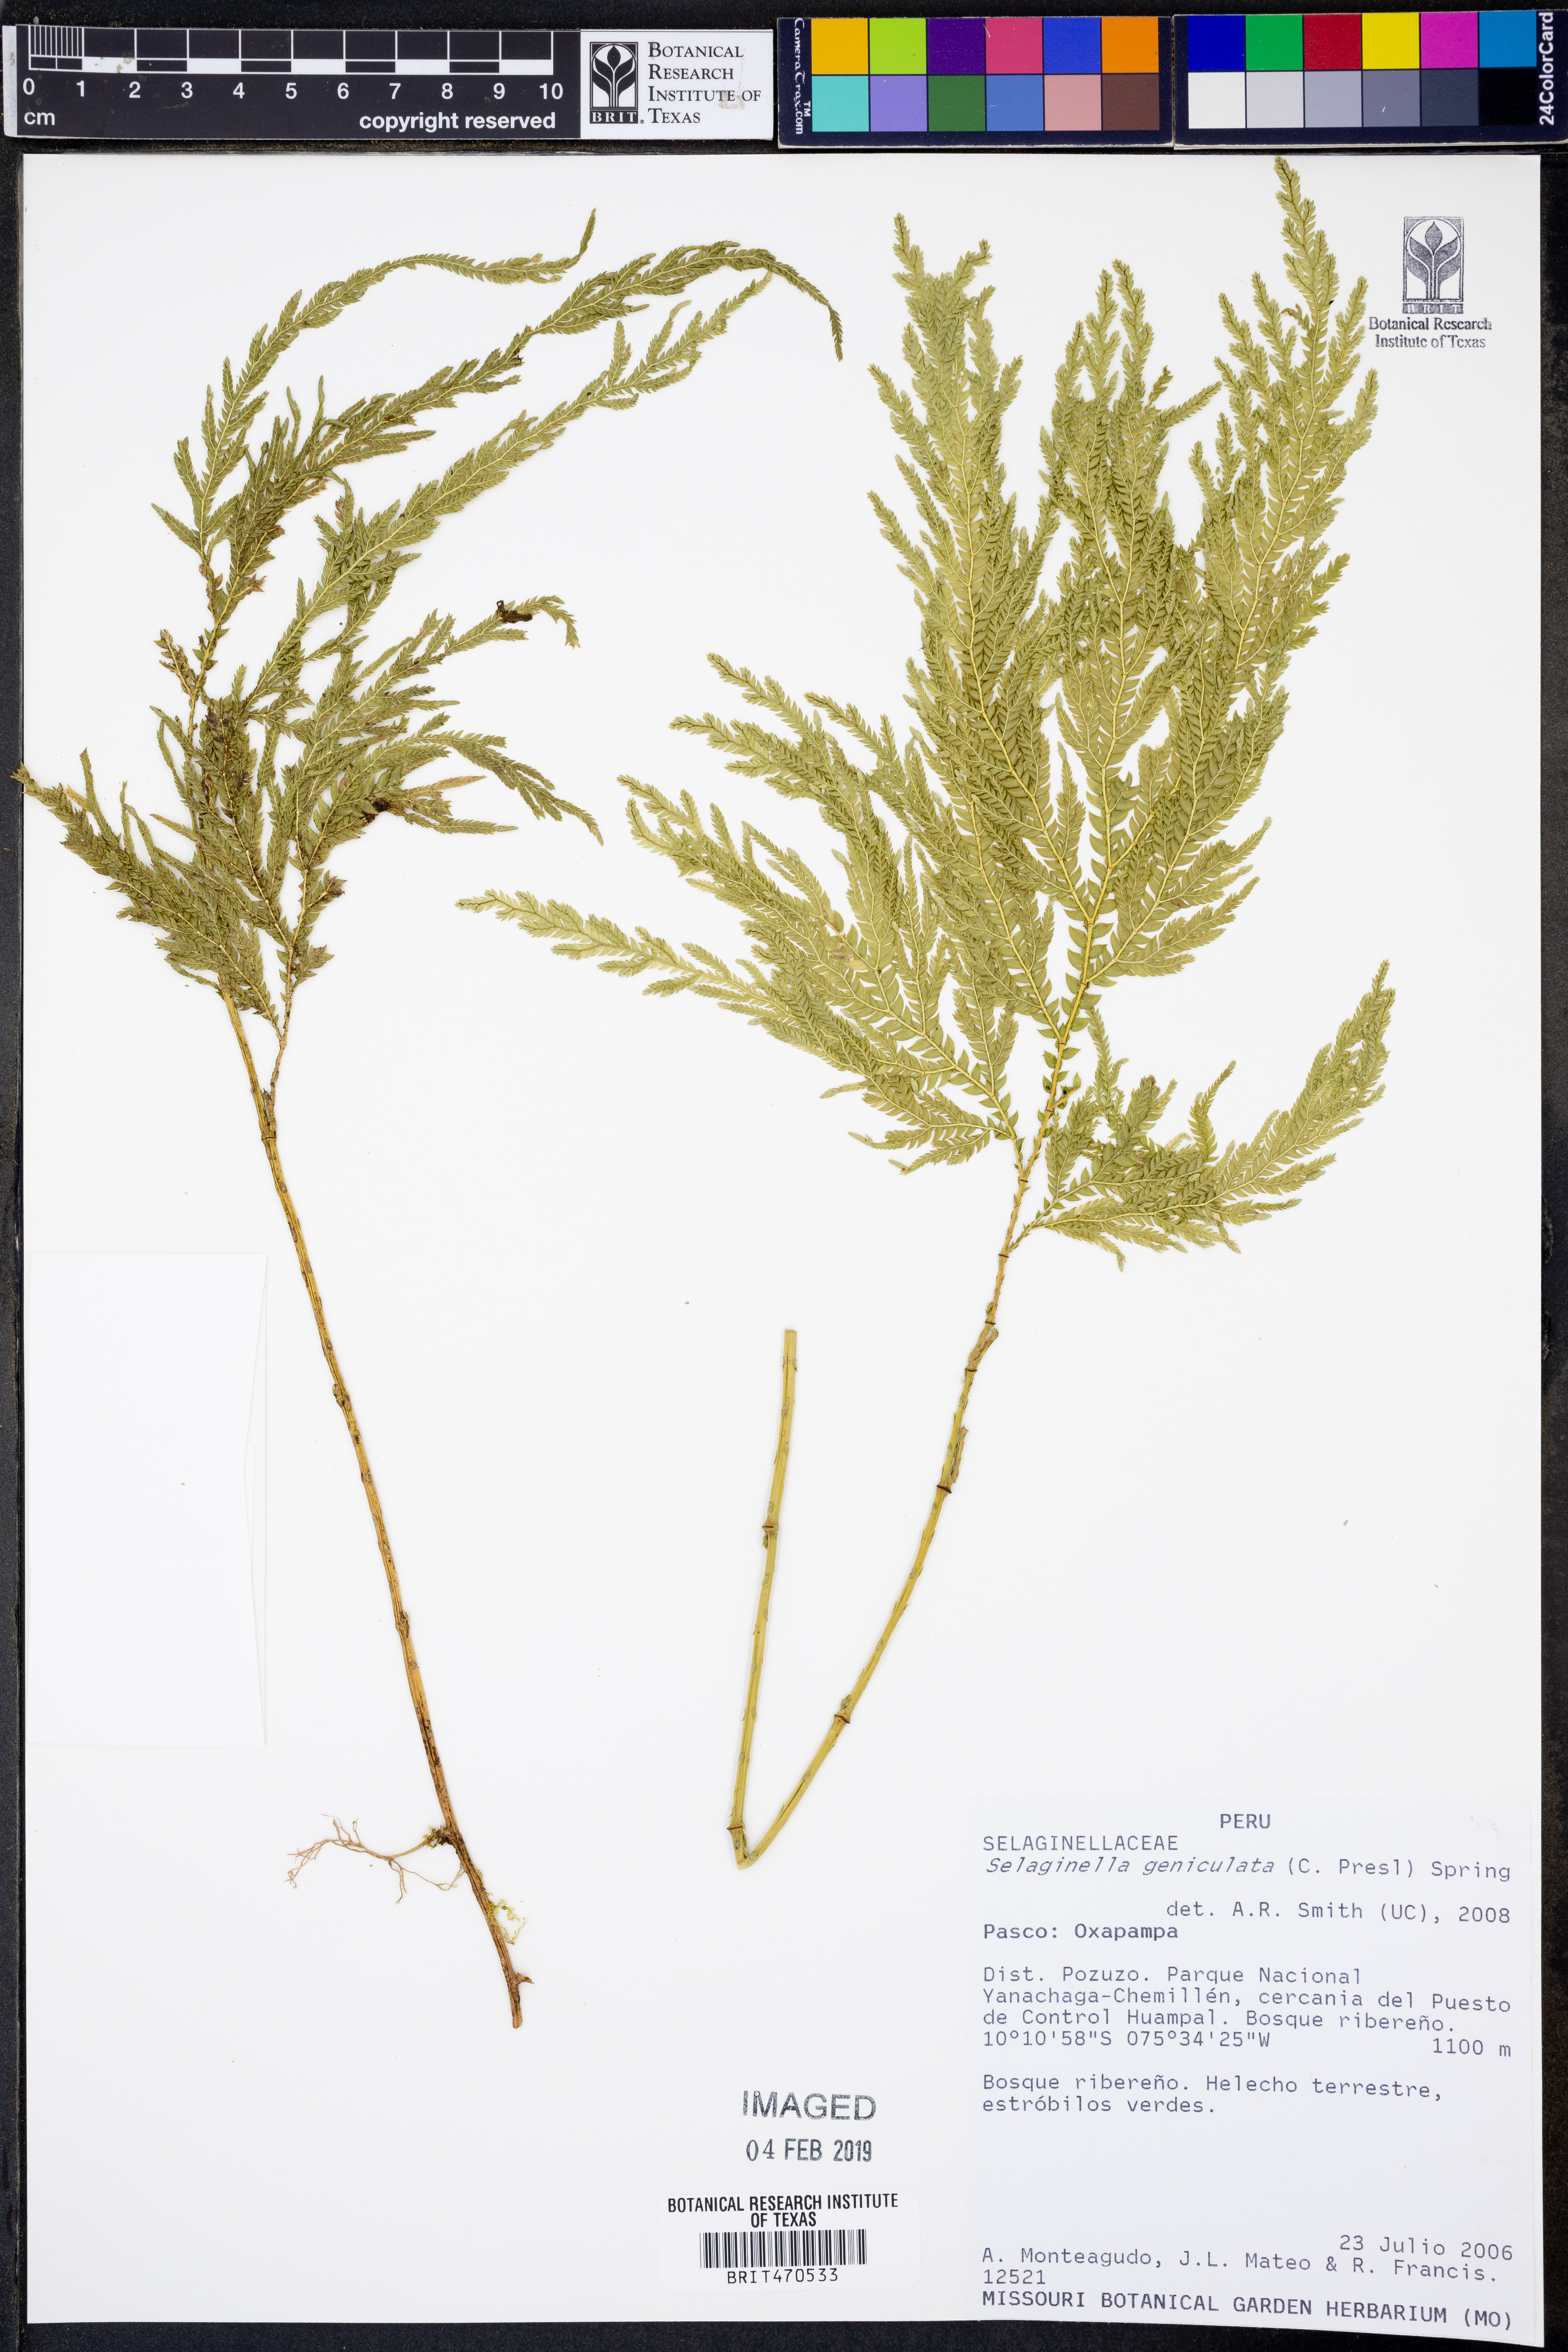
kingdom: Plantae
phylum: Tracheophyta
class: Lycopodiopsida
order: Selaginellales
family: Selaginellaceae
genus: Selaginella
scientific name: Selaginella geniculata
